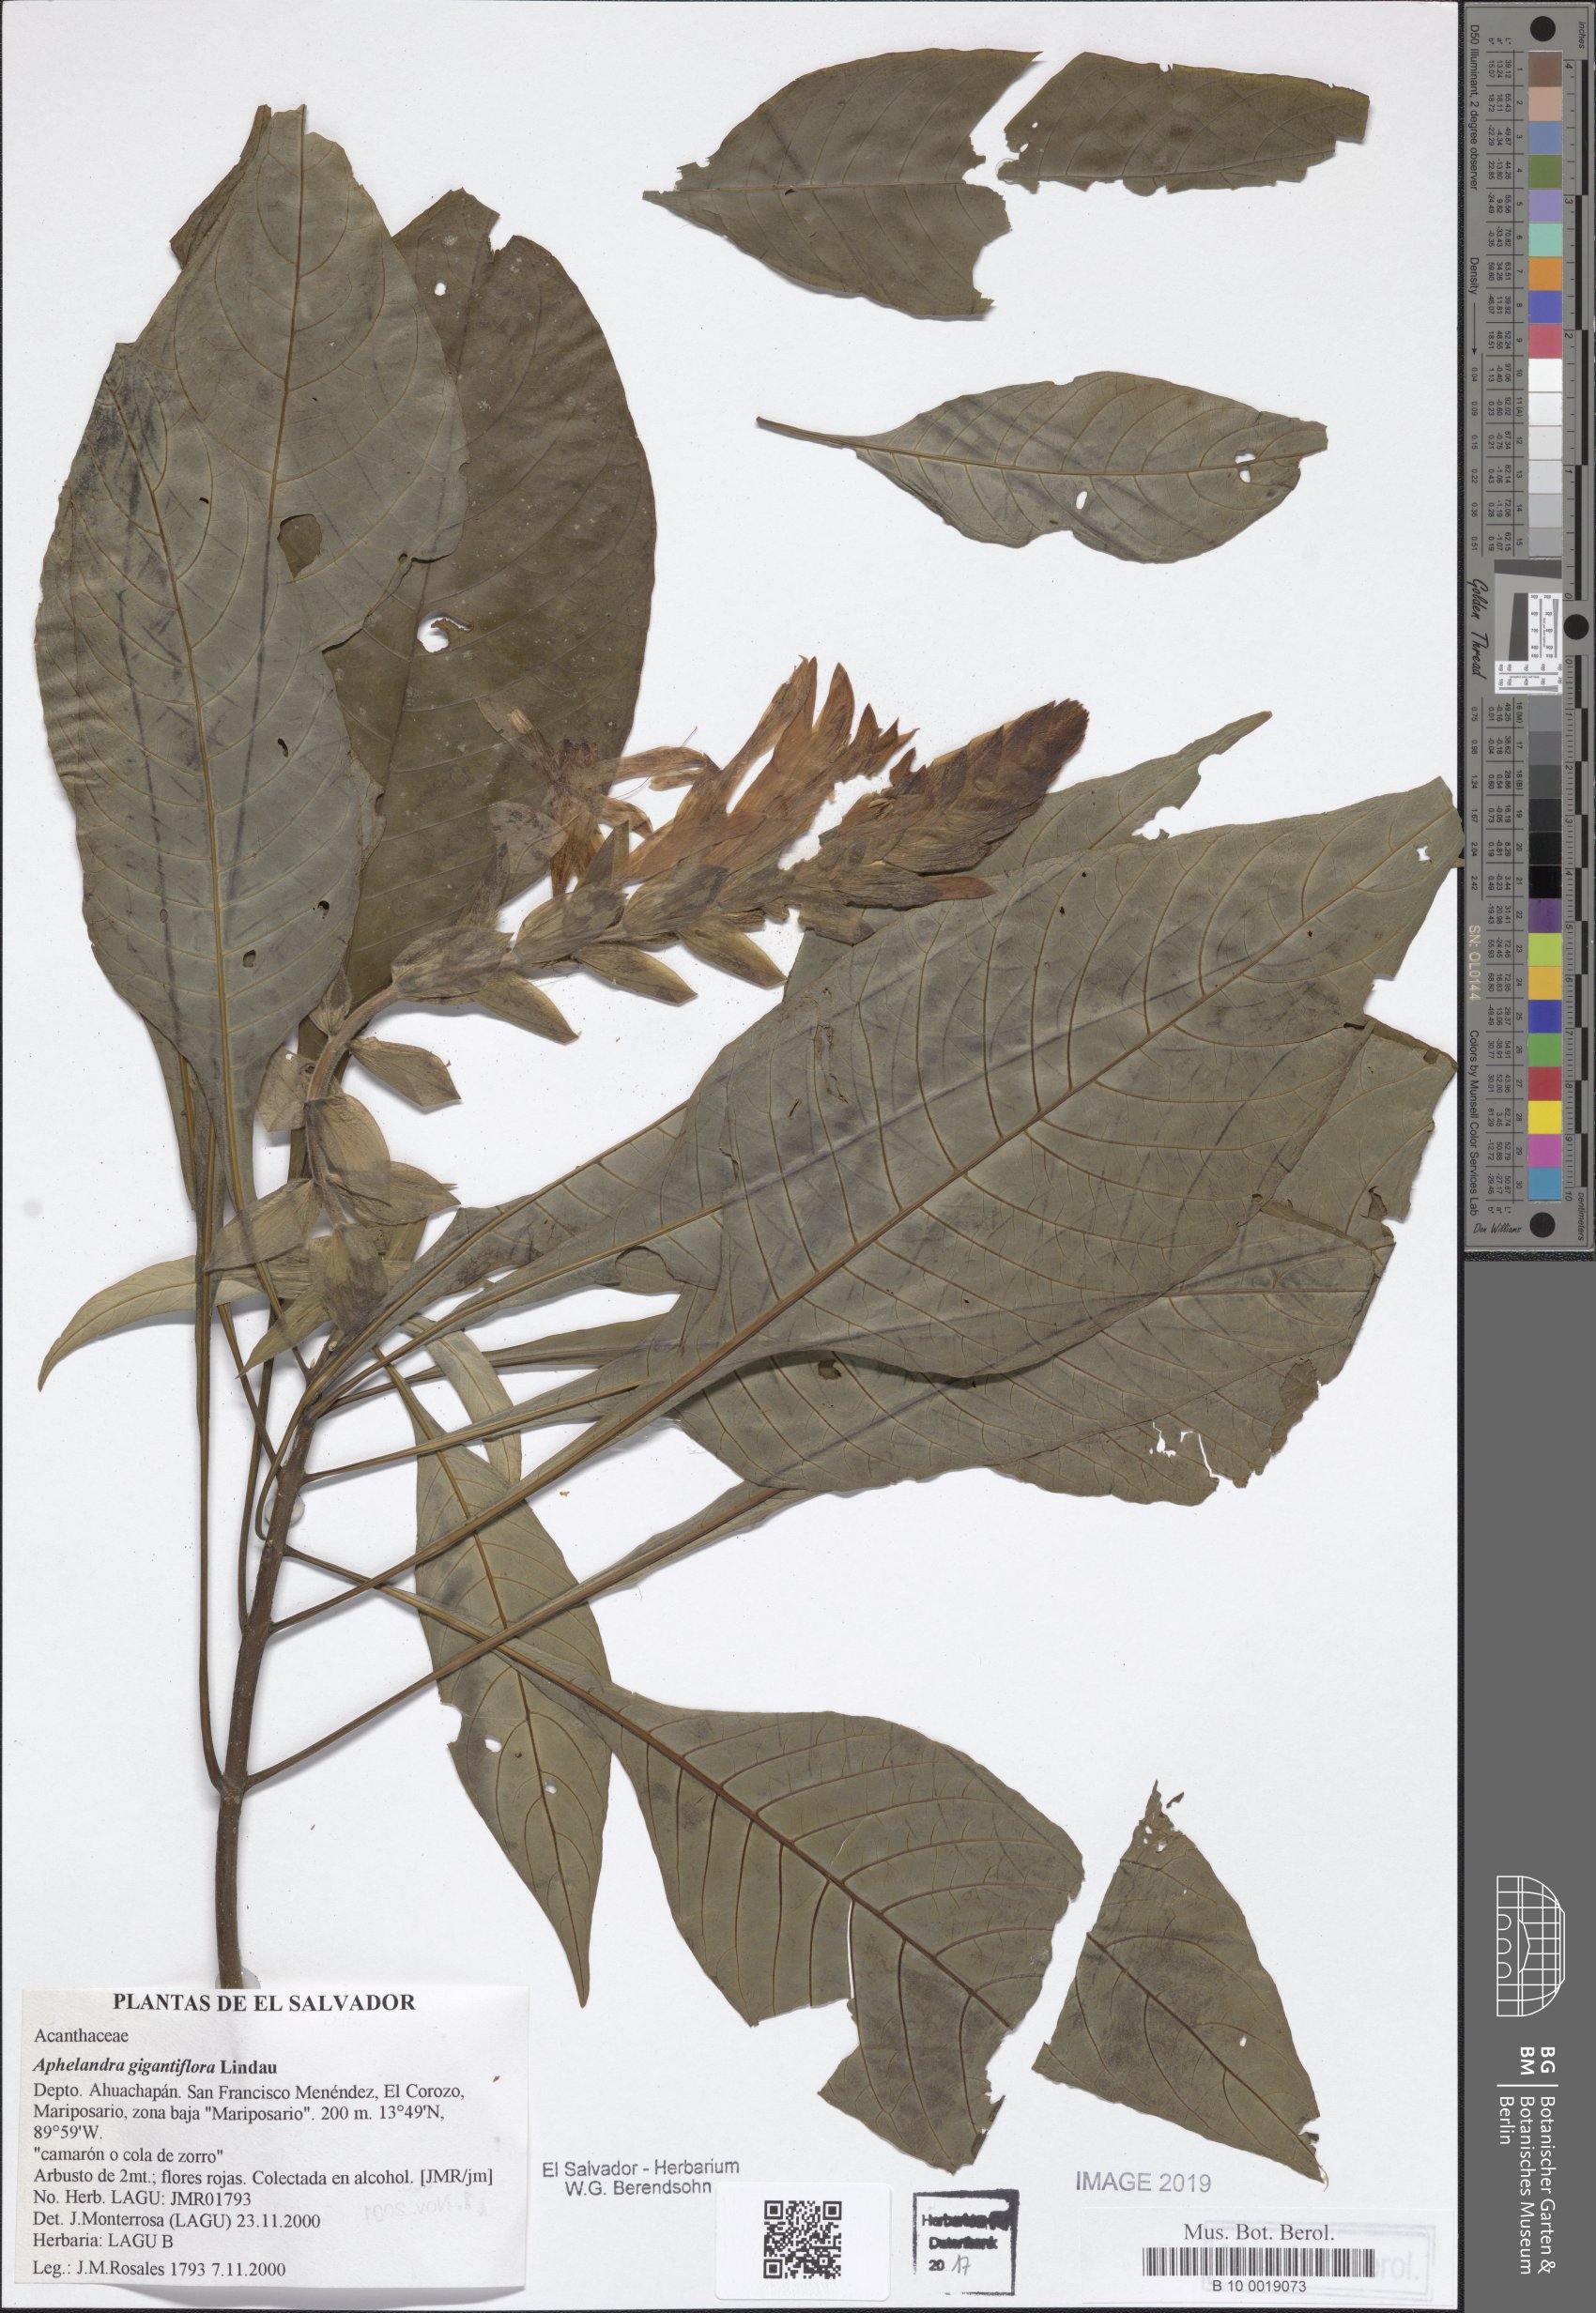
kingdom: Plantae
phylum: Tracheophyta
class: Magnoliopsida
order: Lamiales
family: Acanthaceae
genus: Aphelandra
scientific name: Aphelandra gigantiflora
